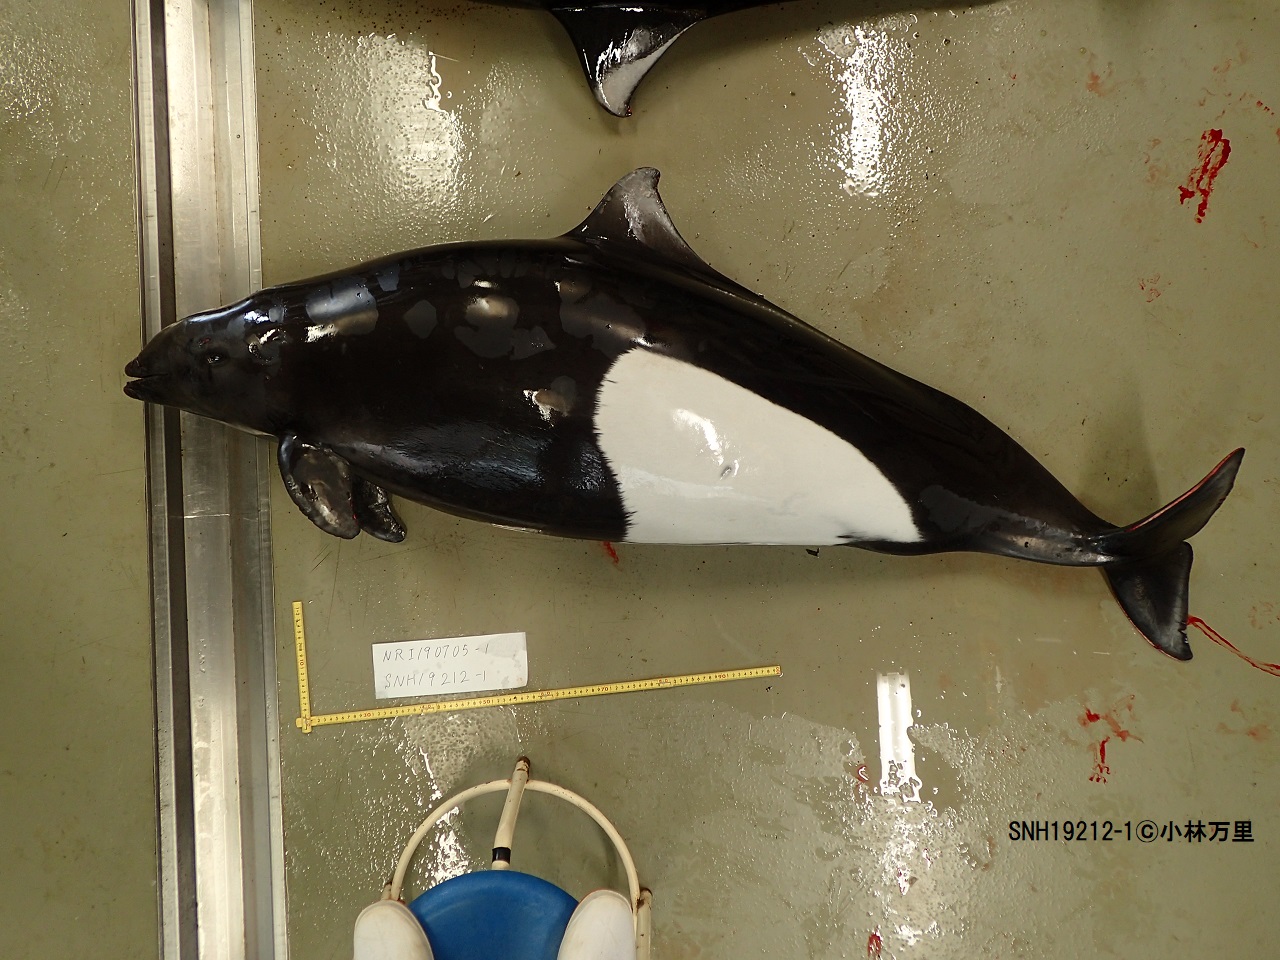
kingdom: Animalia
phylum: Chordata
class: Mammalia
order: Cetacea
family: Phocoenidae
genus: Phocoenoides
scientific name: Phocoenoides dalli
